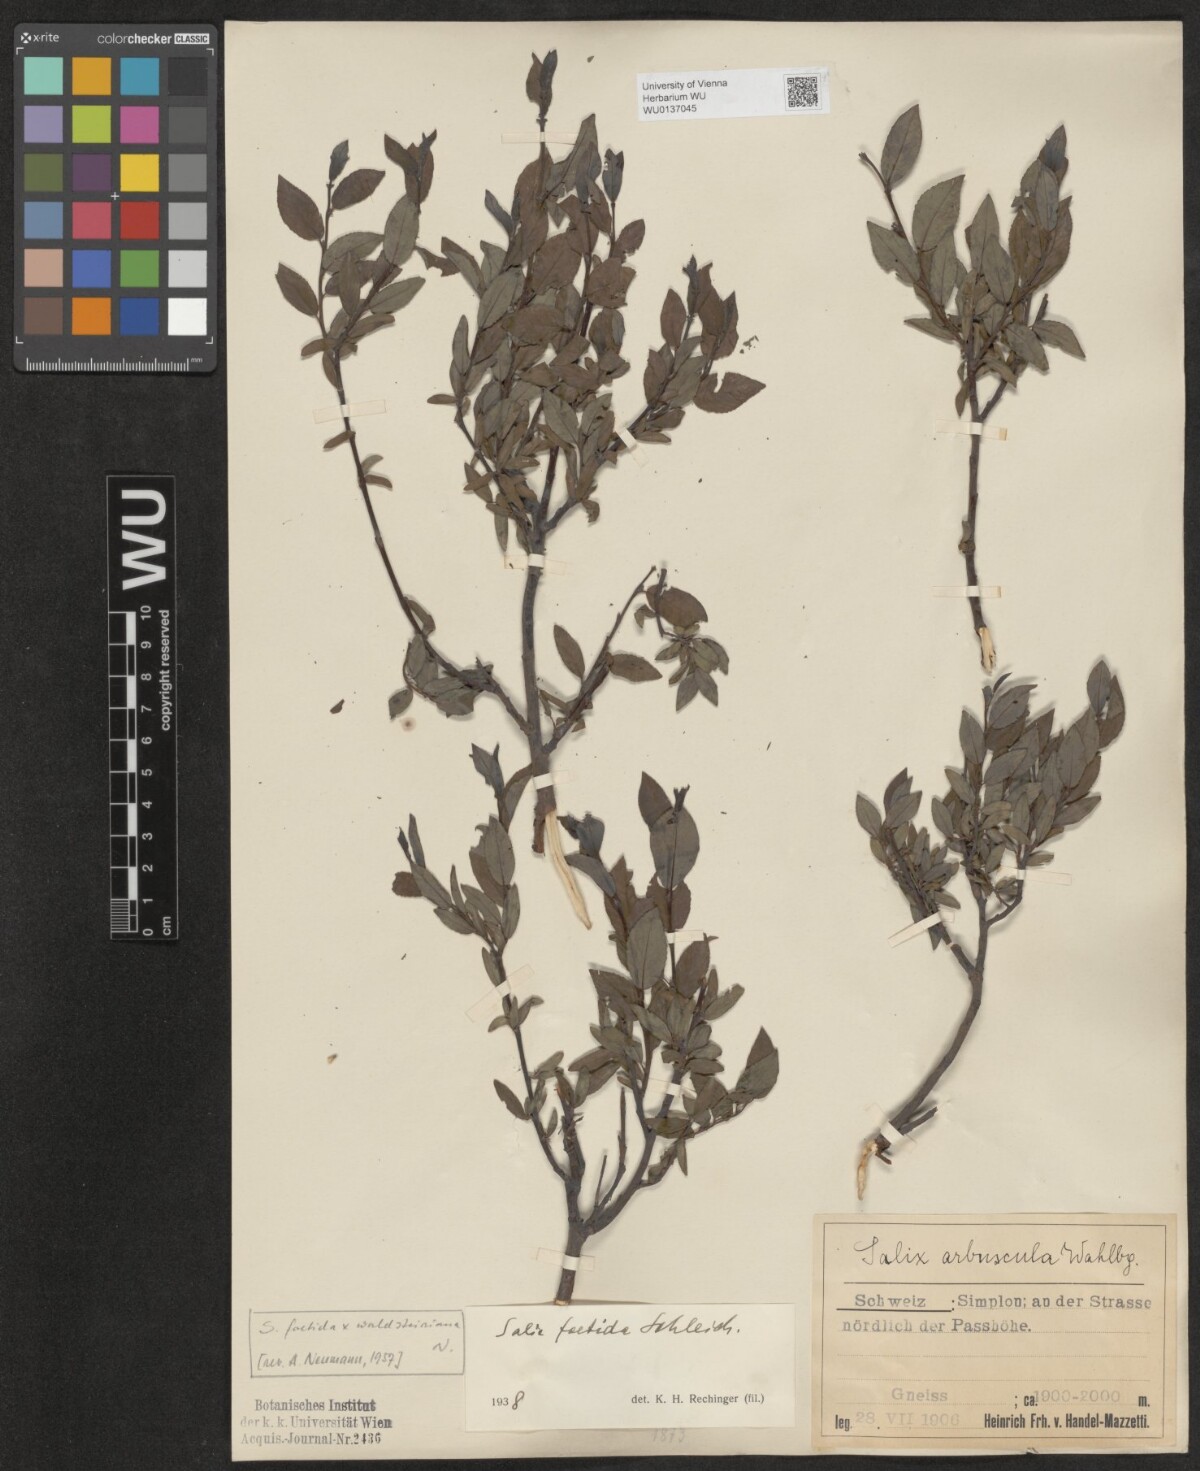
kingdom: Plantae
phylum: Tracheophyta
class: Magnoliopsida
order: Malpighiales
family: Salicaceae
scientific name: Salicaceae
